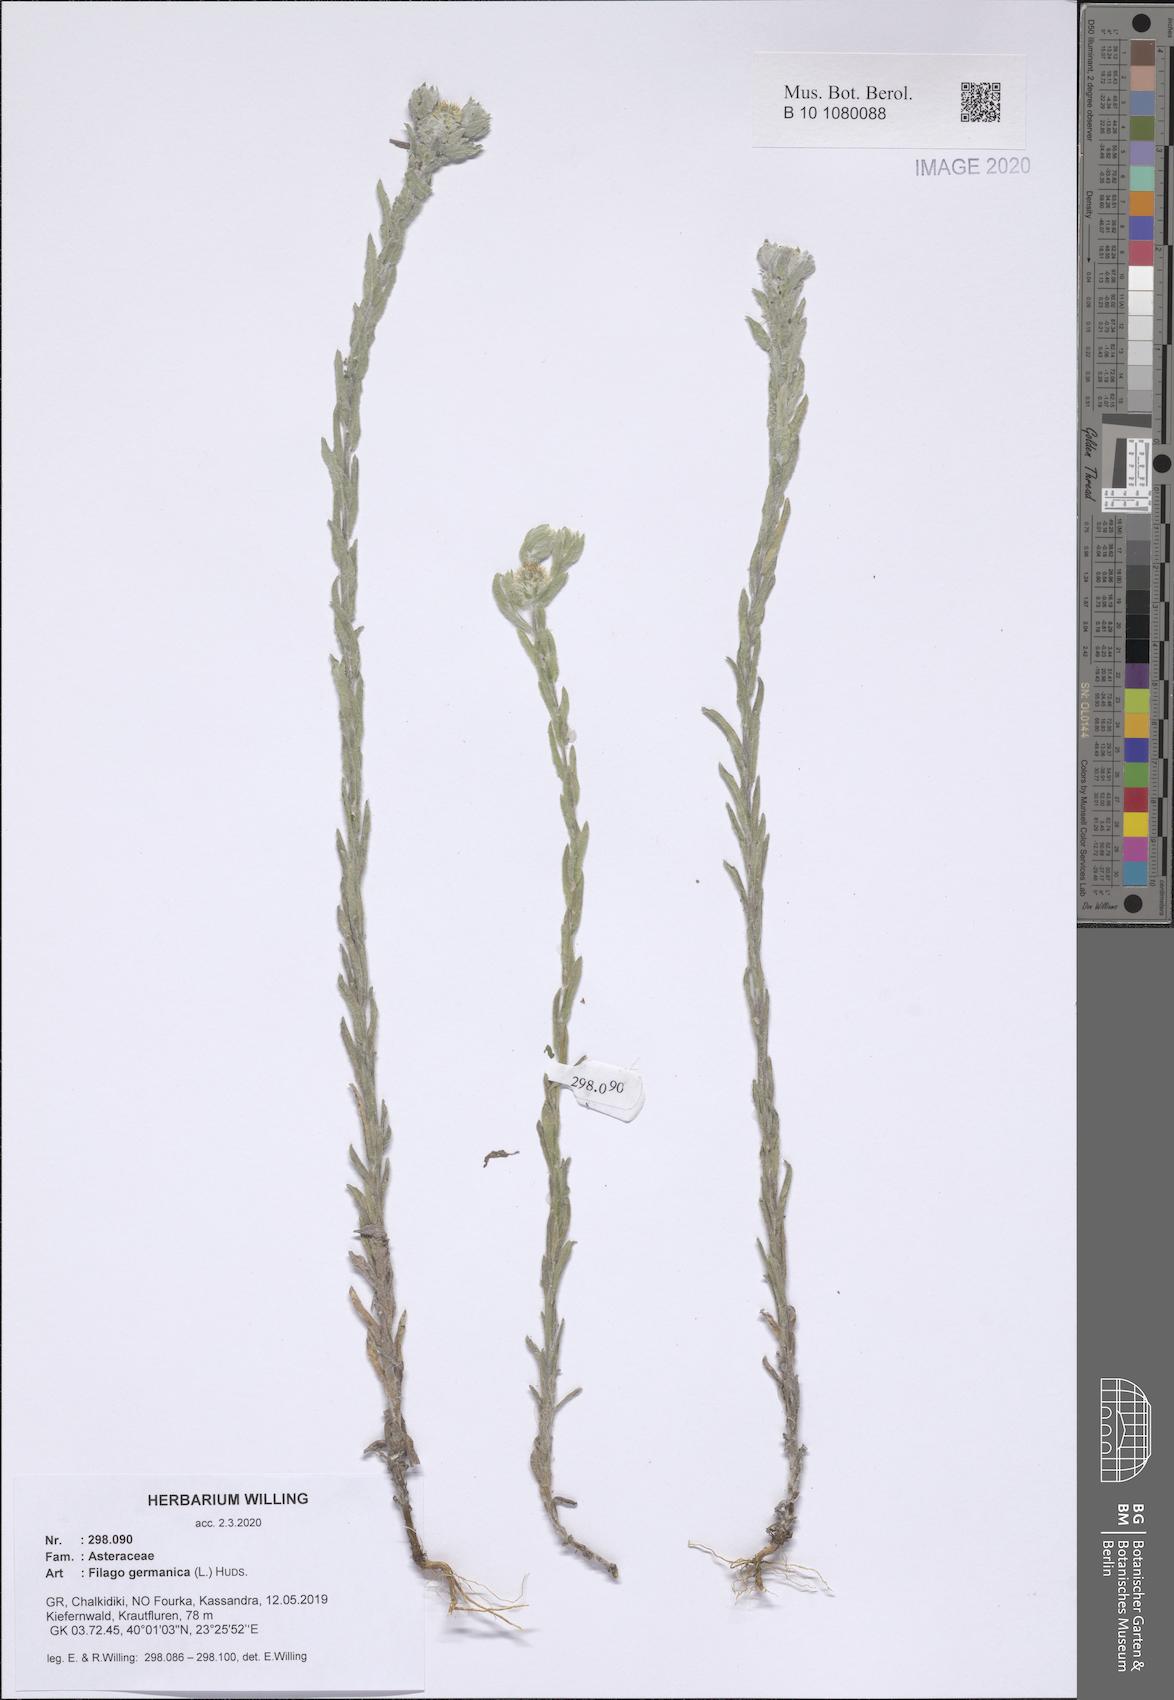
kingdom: Plantae
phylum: Tracheophyta
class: Magnoliopsida
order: Asterales
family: Asteraceae
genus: Filago
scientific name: Filago germanica
